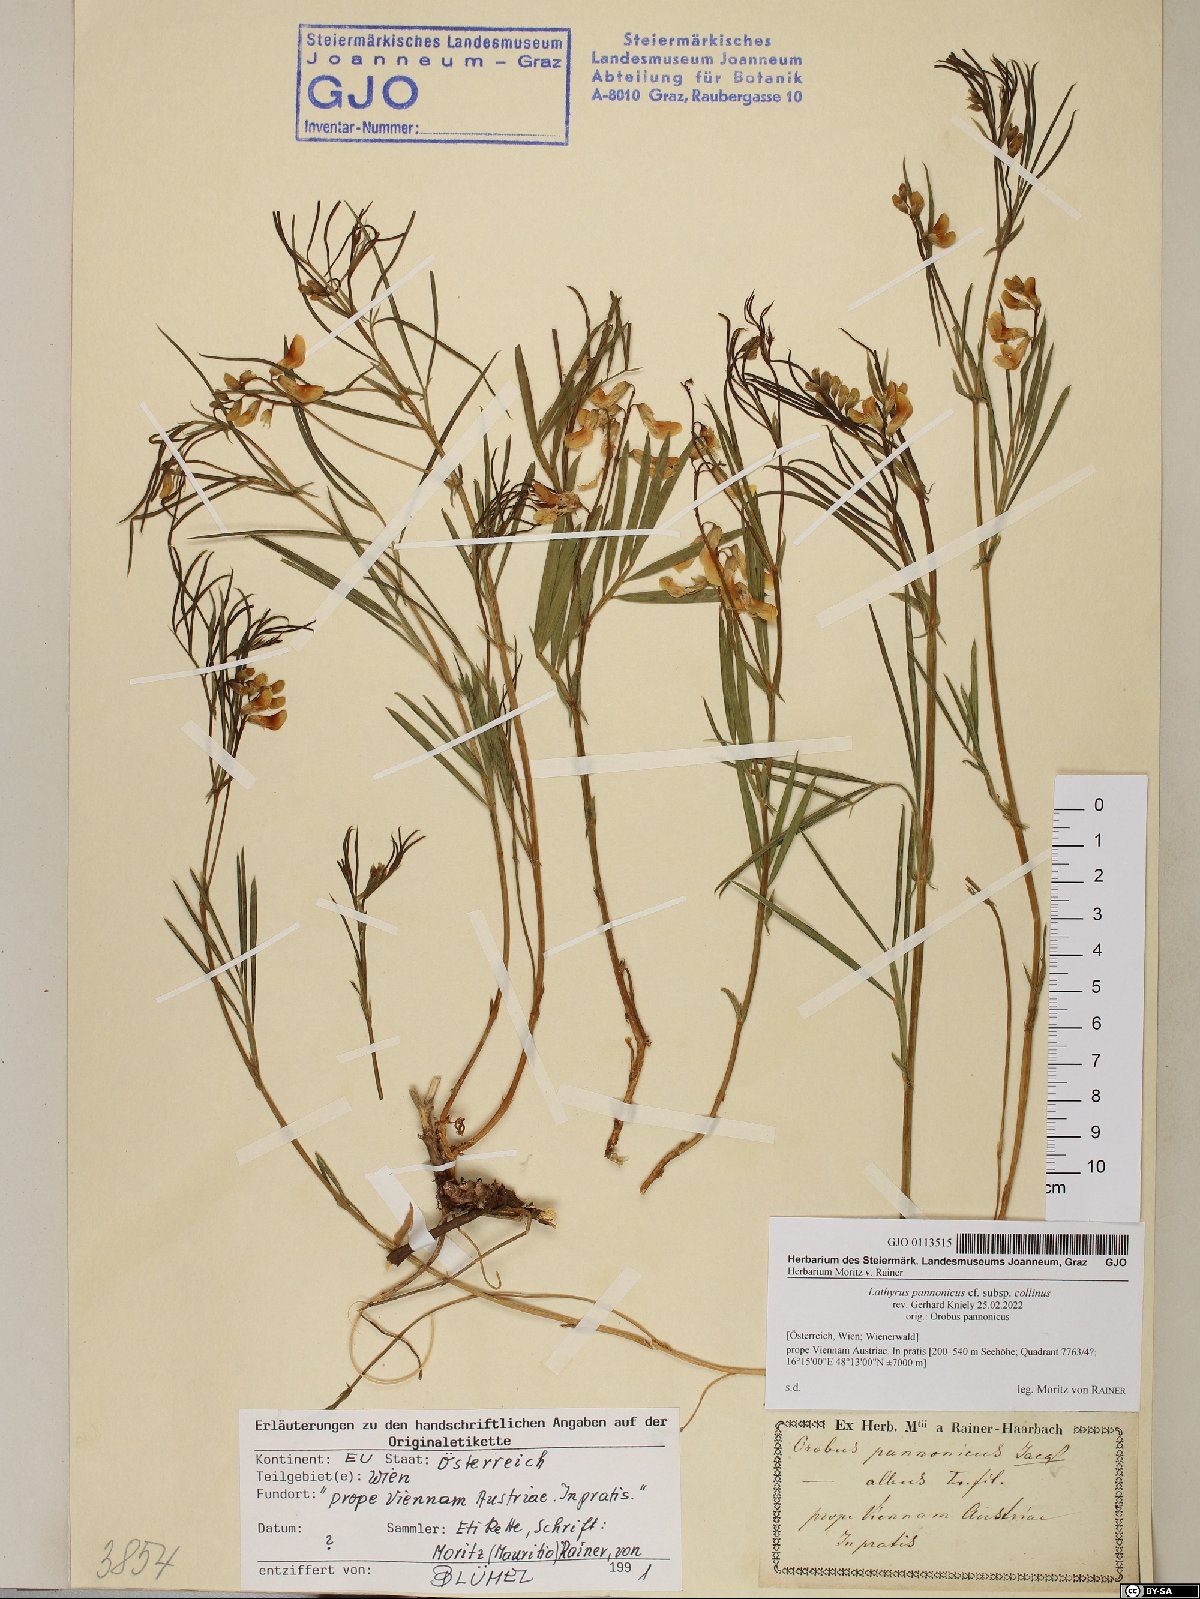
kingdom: Plantae
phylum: Tracheophyta
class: Magnoliopsida
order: Fabales
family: Fabaceae
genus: Lathyrus
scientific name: Lathyrus pannonicus
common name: Pea
